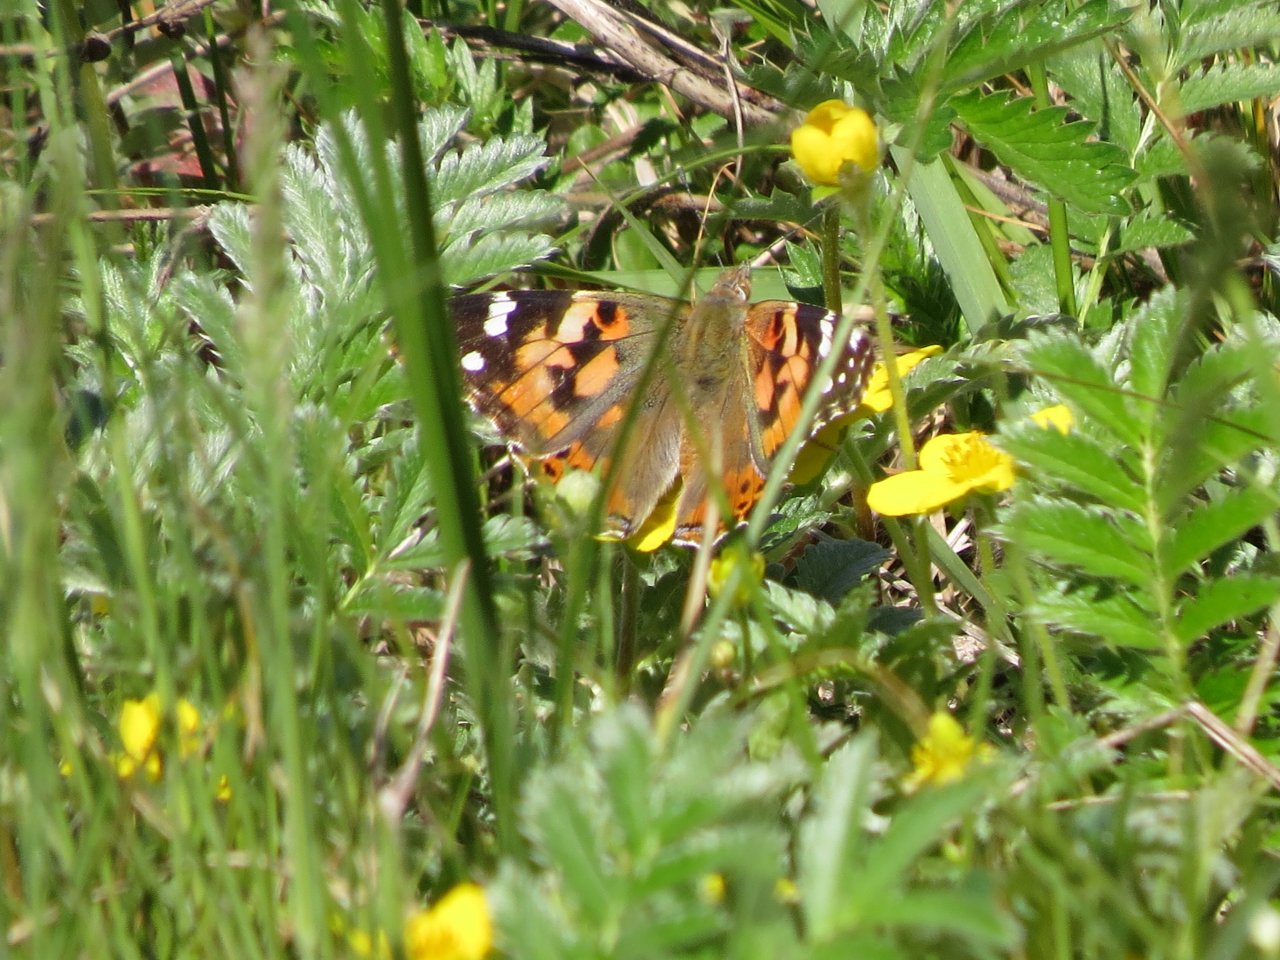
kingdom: Animalia
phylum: Arthropoda
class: Insecta
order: Lepidoptera
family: Nymphalidae
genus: Vanessa
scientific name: Vanessa cardui
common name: Painted Lady
